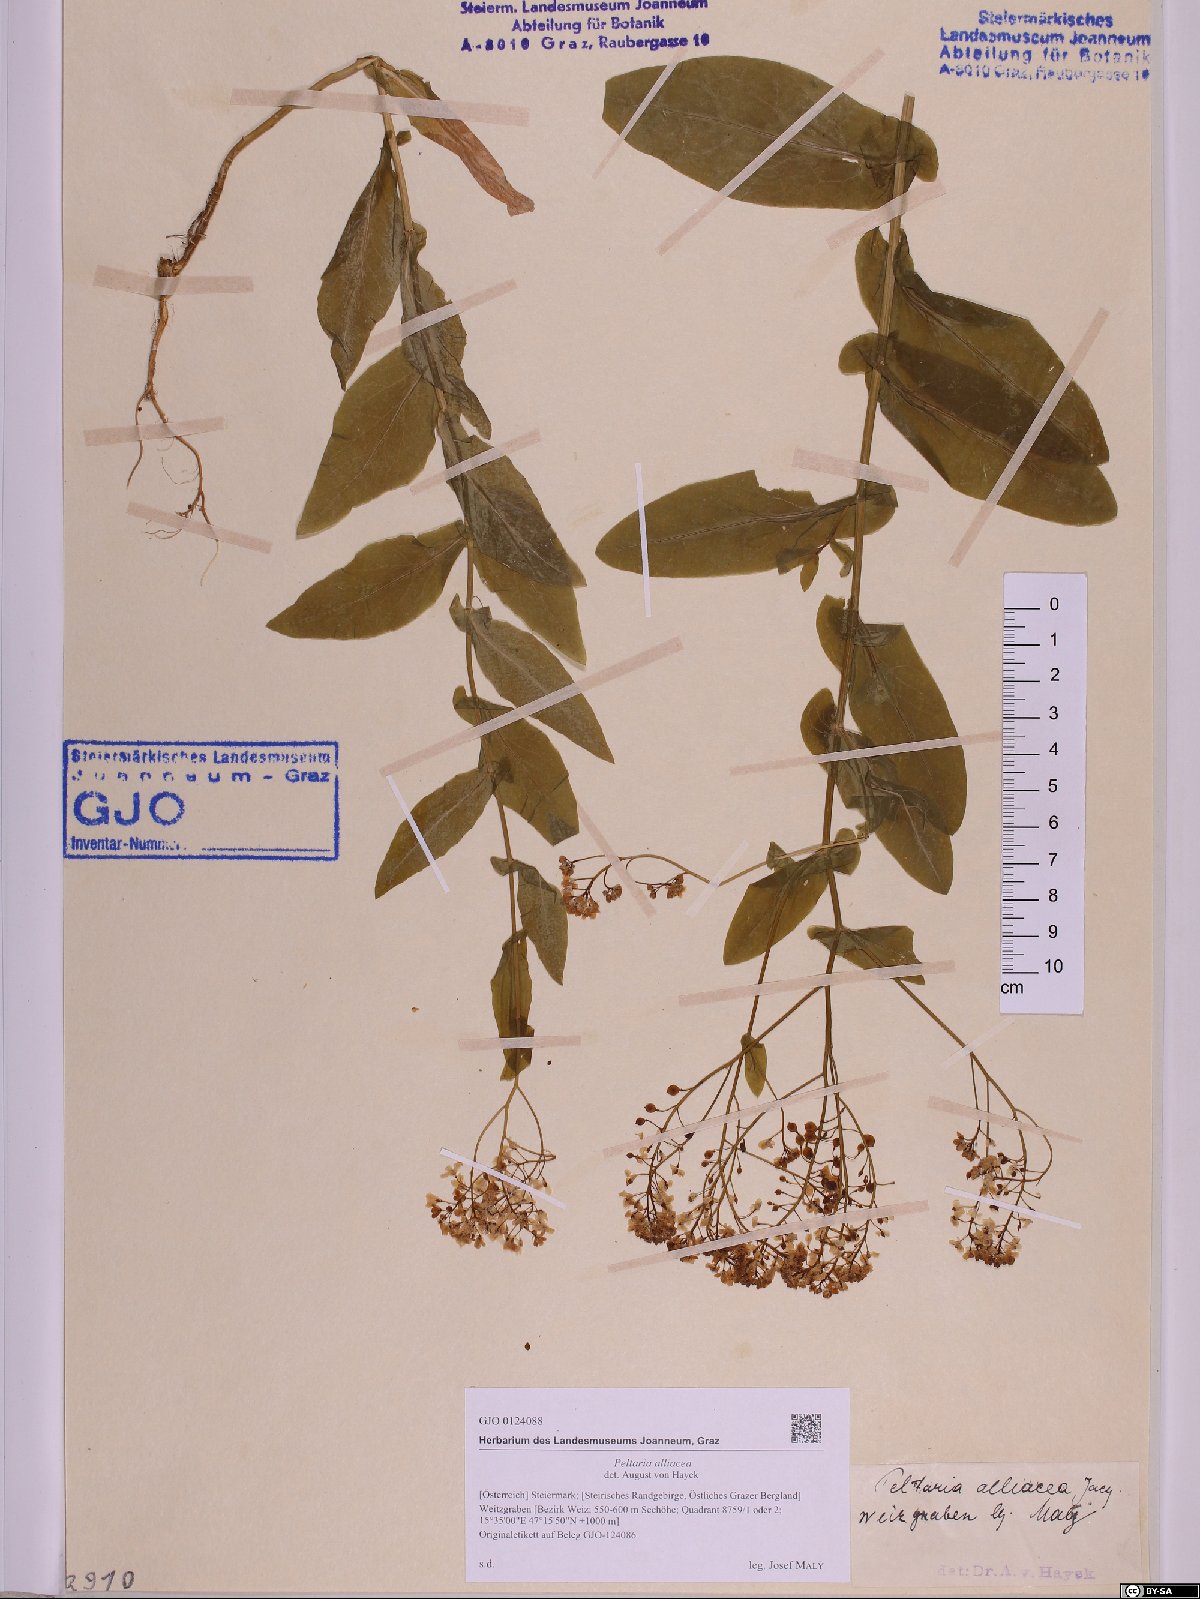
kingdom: Plantae
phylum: Tracheophyta
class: Magnoliopsida
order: Brassicales
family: Brassicaceae
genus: Peltaria
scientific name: Peltaria alliacea
